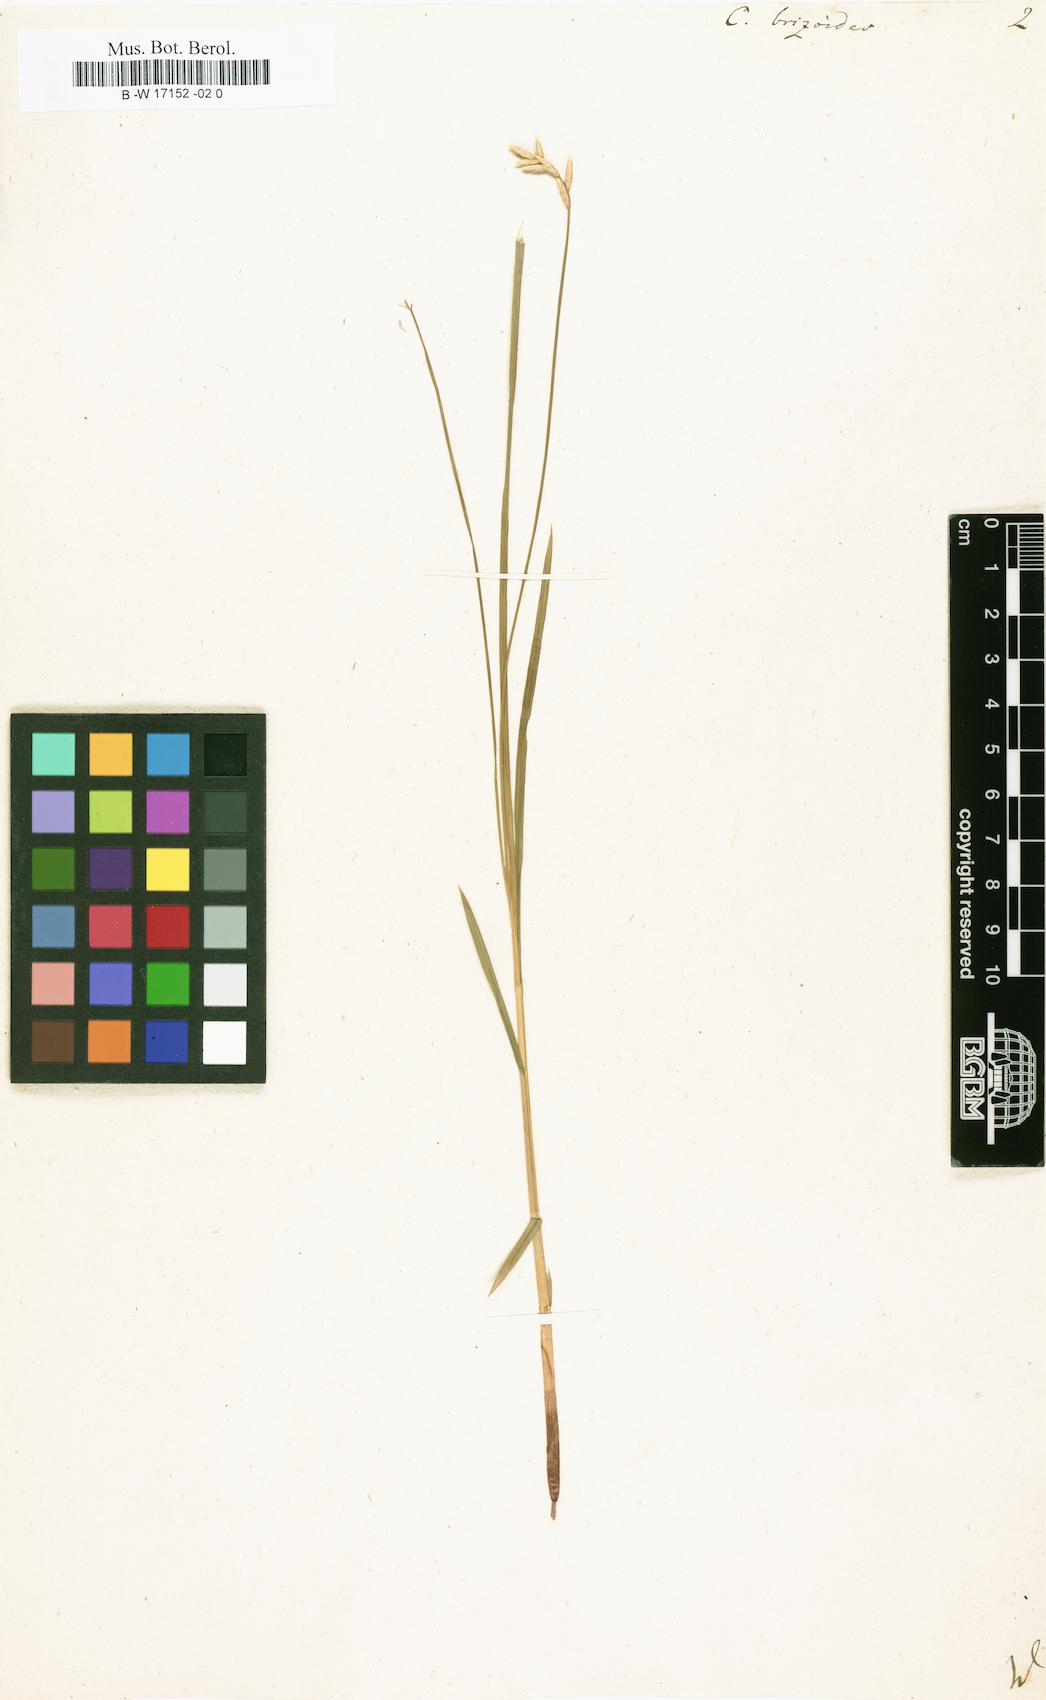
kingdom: Plantae
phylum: Tracheophyta
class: Liliopsida
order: Poales
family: Cyperaceae
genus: Carex
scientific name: Carex brizoides
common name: Quaking-grass sedge
